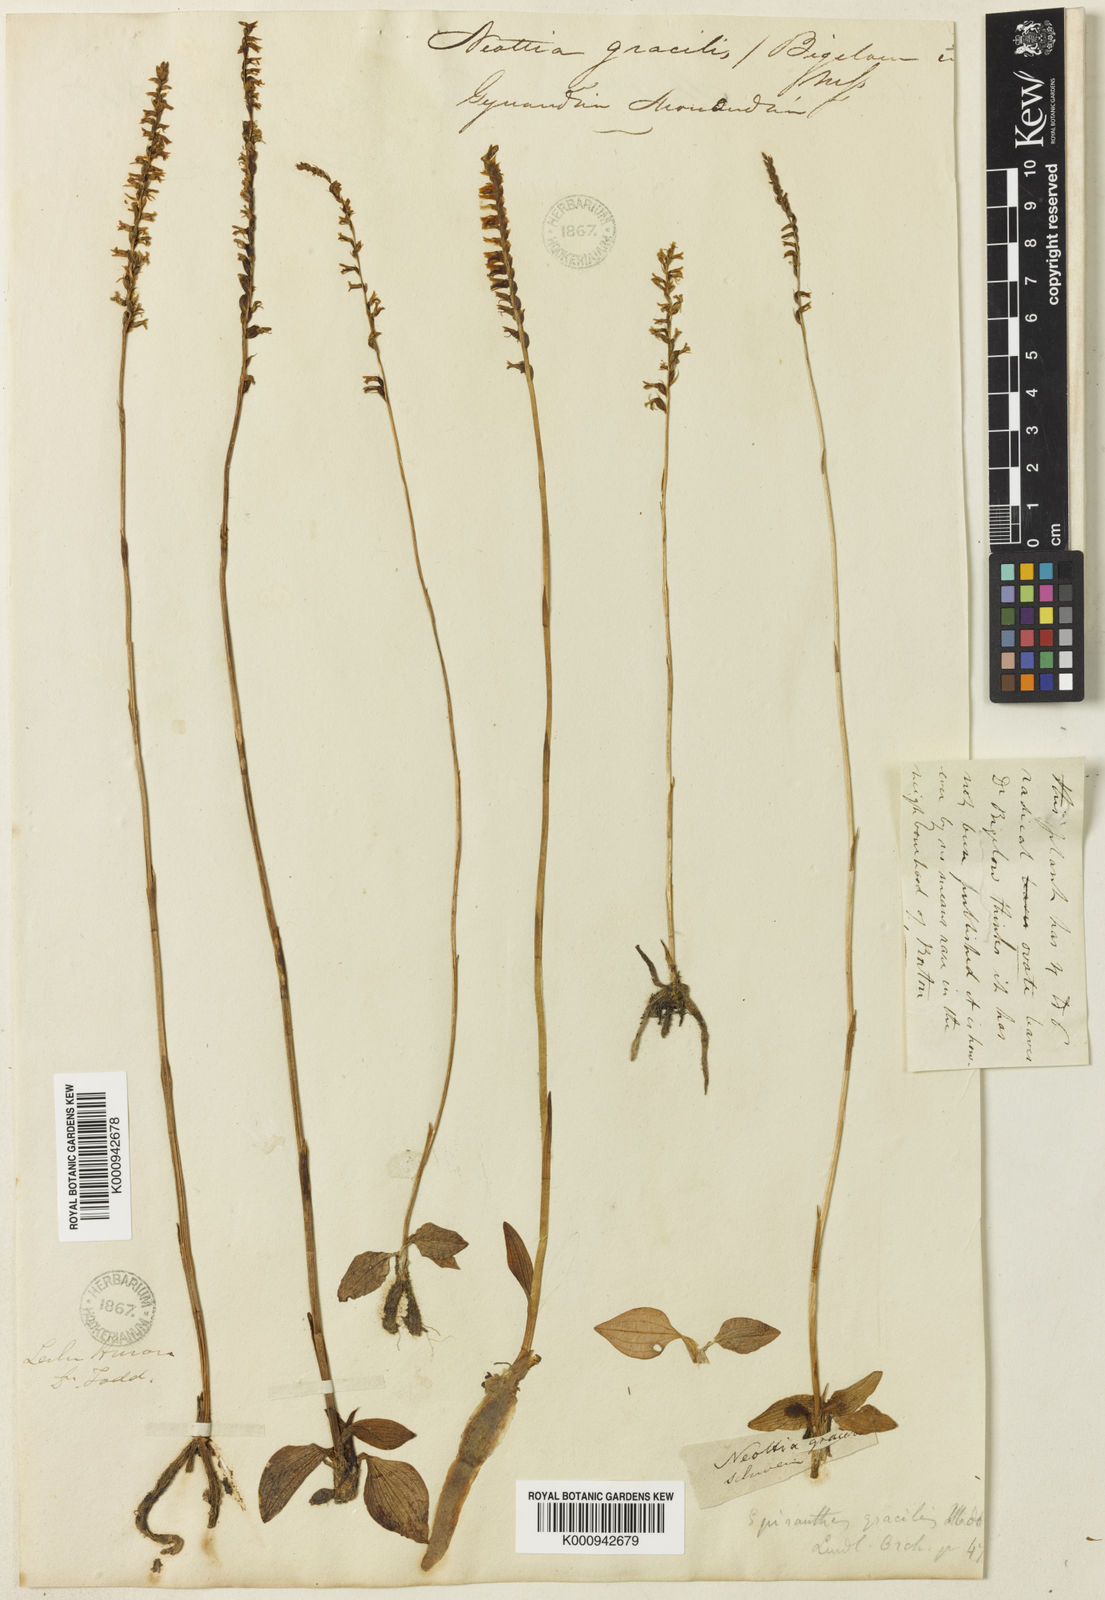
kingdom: Plantae
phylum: Tracheophyta
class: Liliopsida
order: Asparagales
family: Orchidaceae
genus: Spiranthes
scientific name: Spiranthes lacera
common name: Northern slender ladies'-tresses
